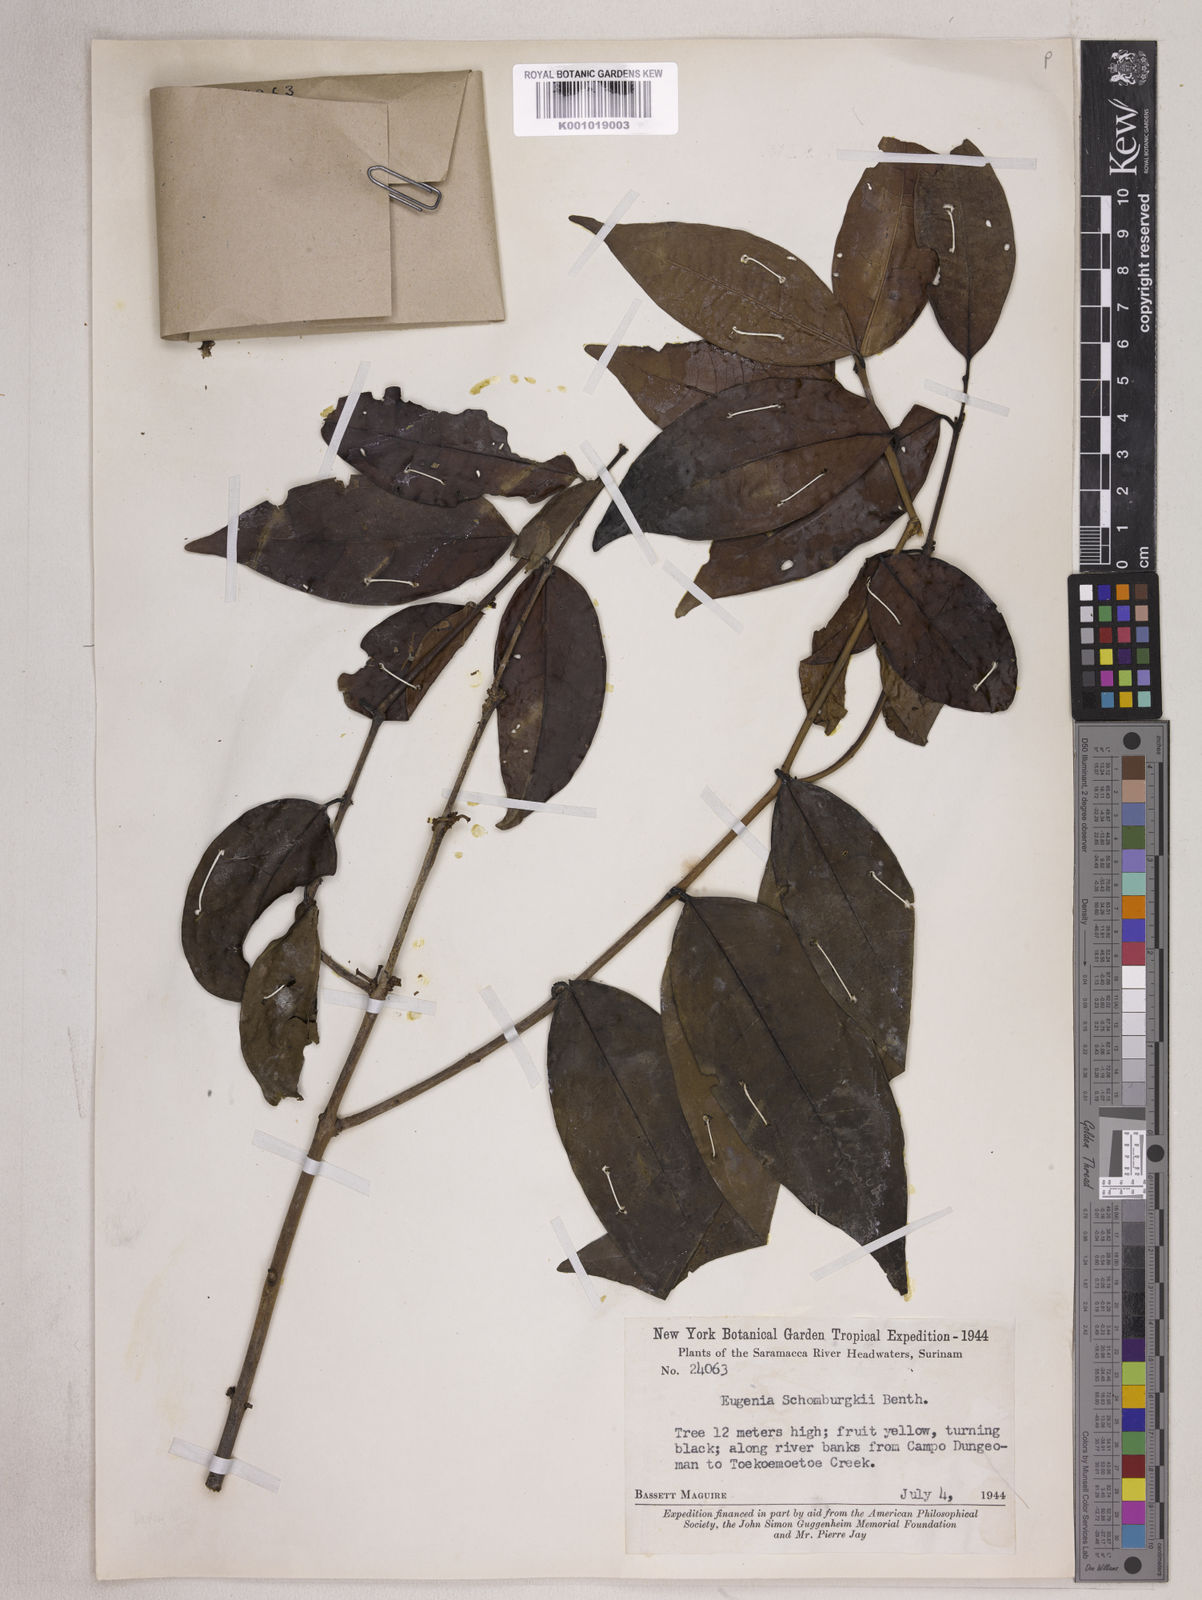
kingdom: Plantae
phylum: Tracheophyta
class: Magnoliopsida
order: Myrtales
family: Myrtaceae
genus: Eugenia
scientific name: Eugenia lambertiana
